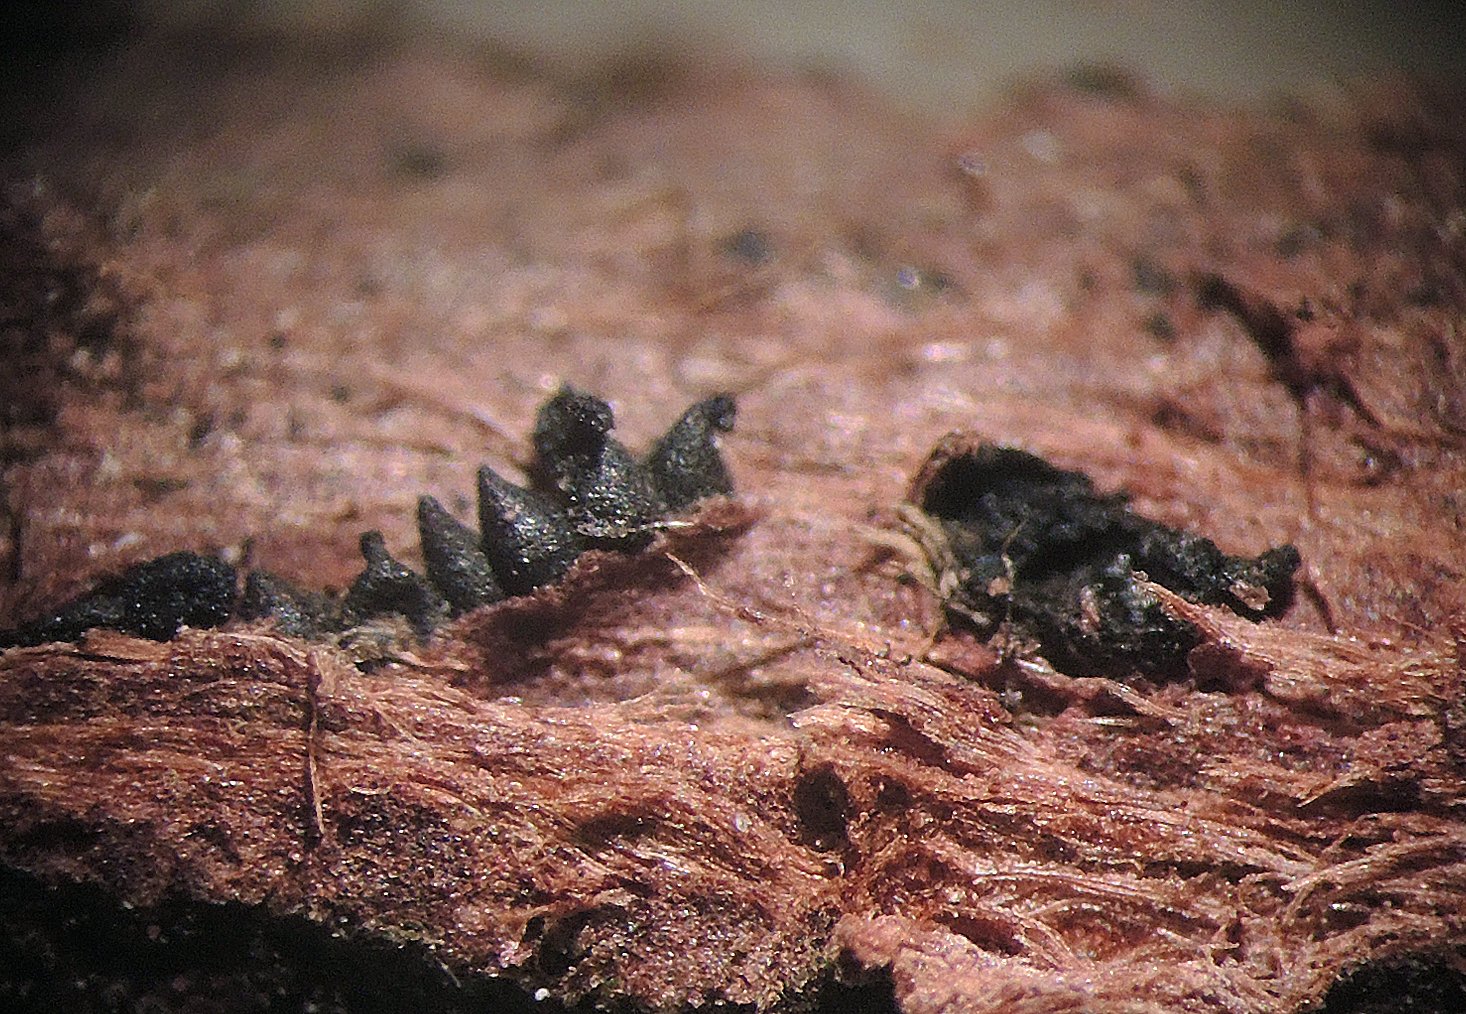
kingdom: Fungi
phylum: Ascomycota
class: Dothideomycetes
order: Botryosphaeriales
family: Botryosphaeriaceae
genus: Diplodia
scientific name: Diplodia juniperi
